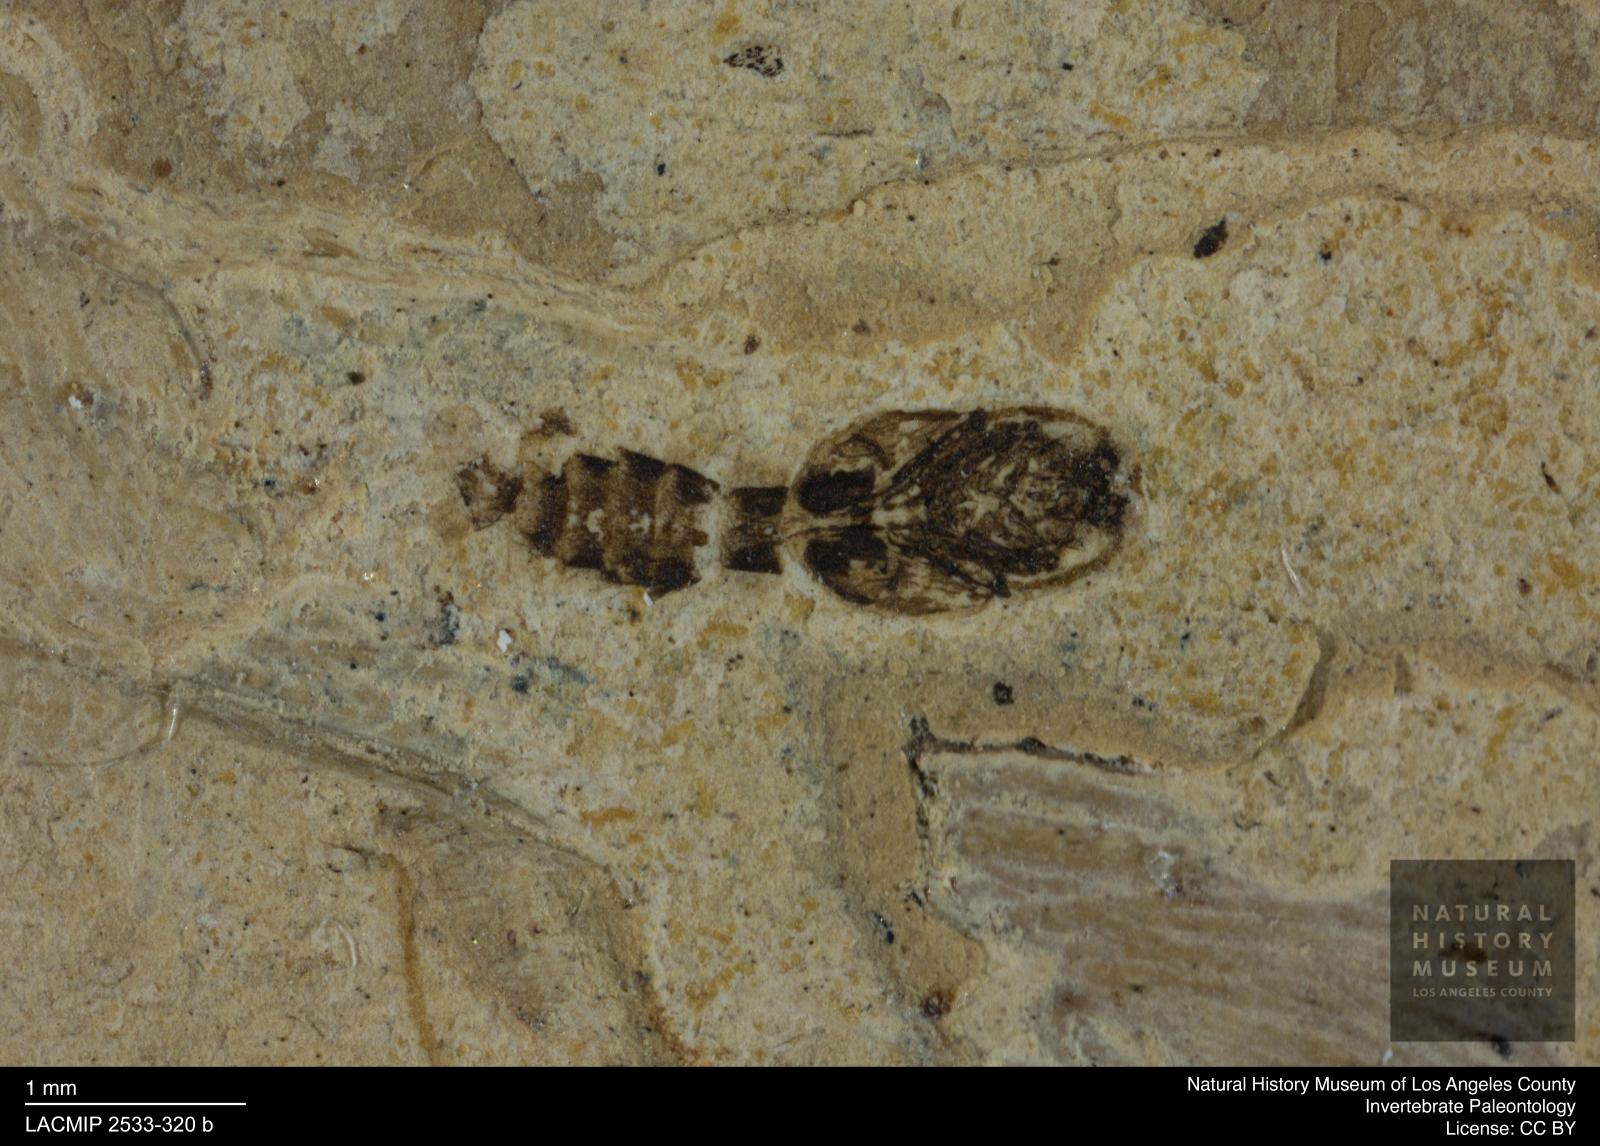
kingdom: Animalia
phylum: Arthropoda
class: Insecta
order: Diptera
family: Ceratopogonidae
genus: Ceratopogon
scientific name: Ceratopogon
